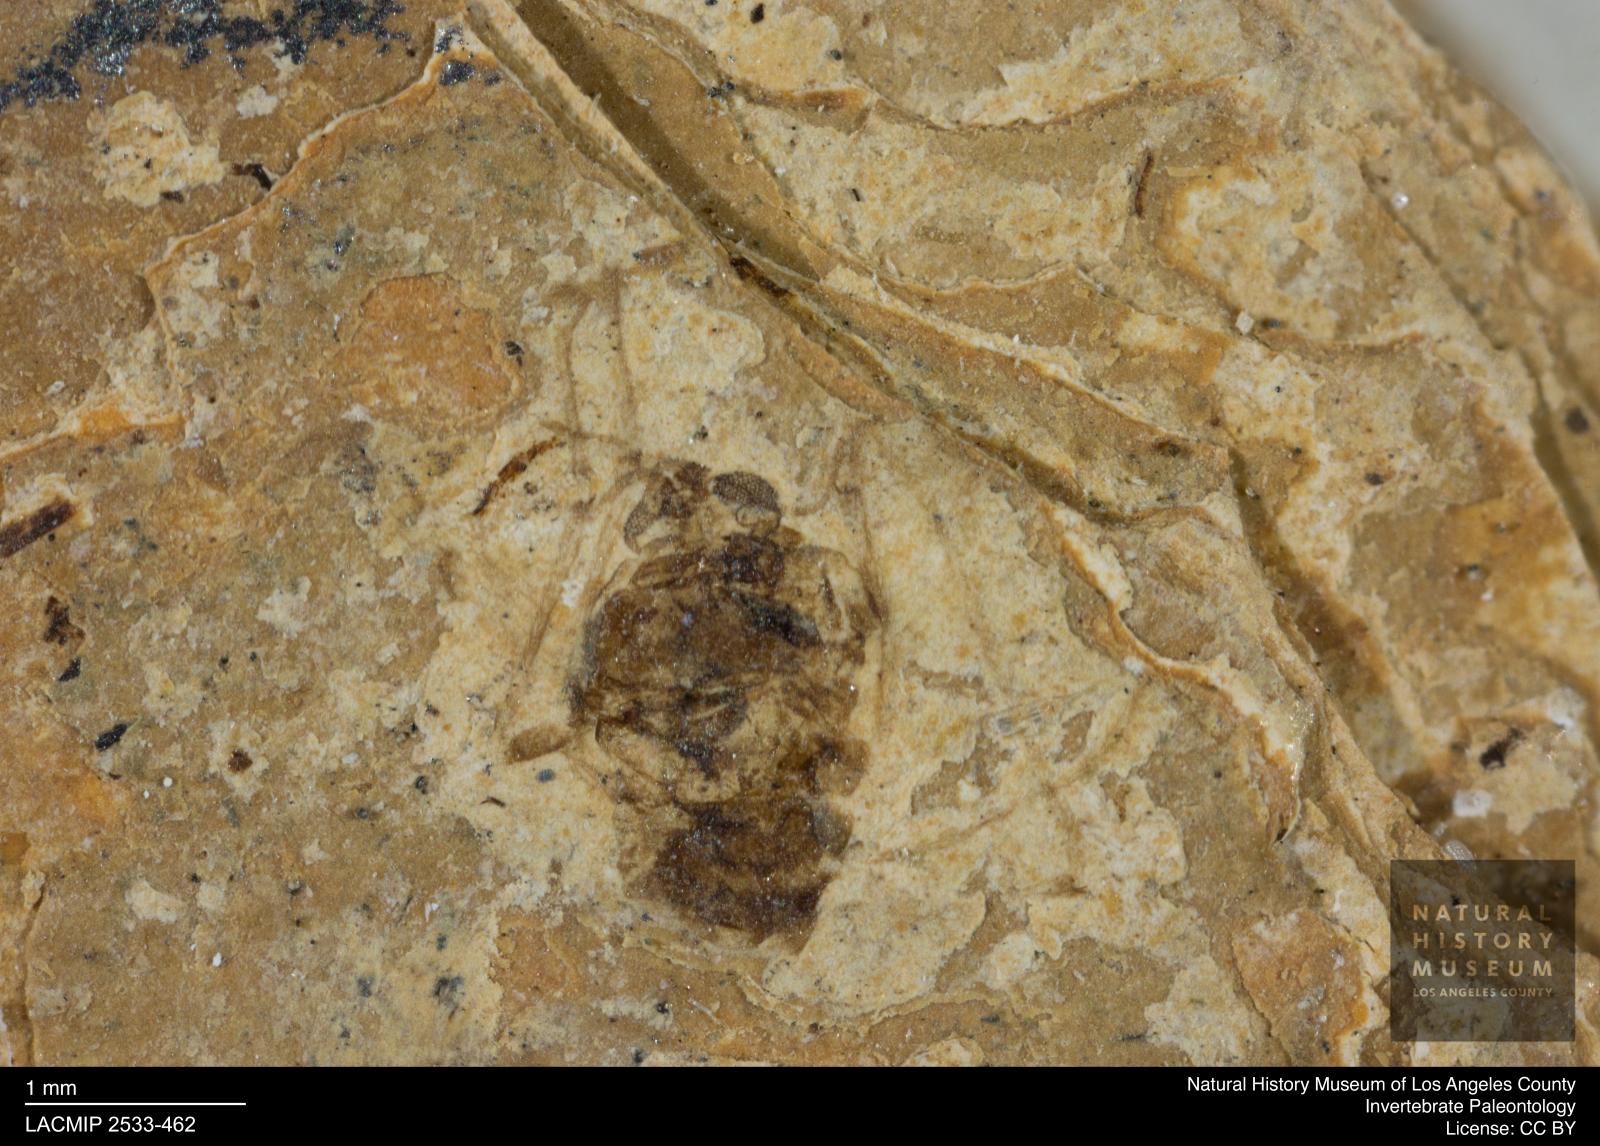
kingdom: Animalia
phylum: Arthropoda
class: Insecta
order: Diptera
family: Chironomidae
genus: Tanypus
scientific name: Tanypus thienemanni
